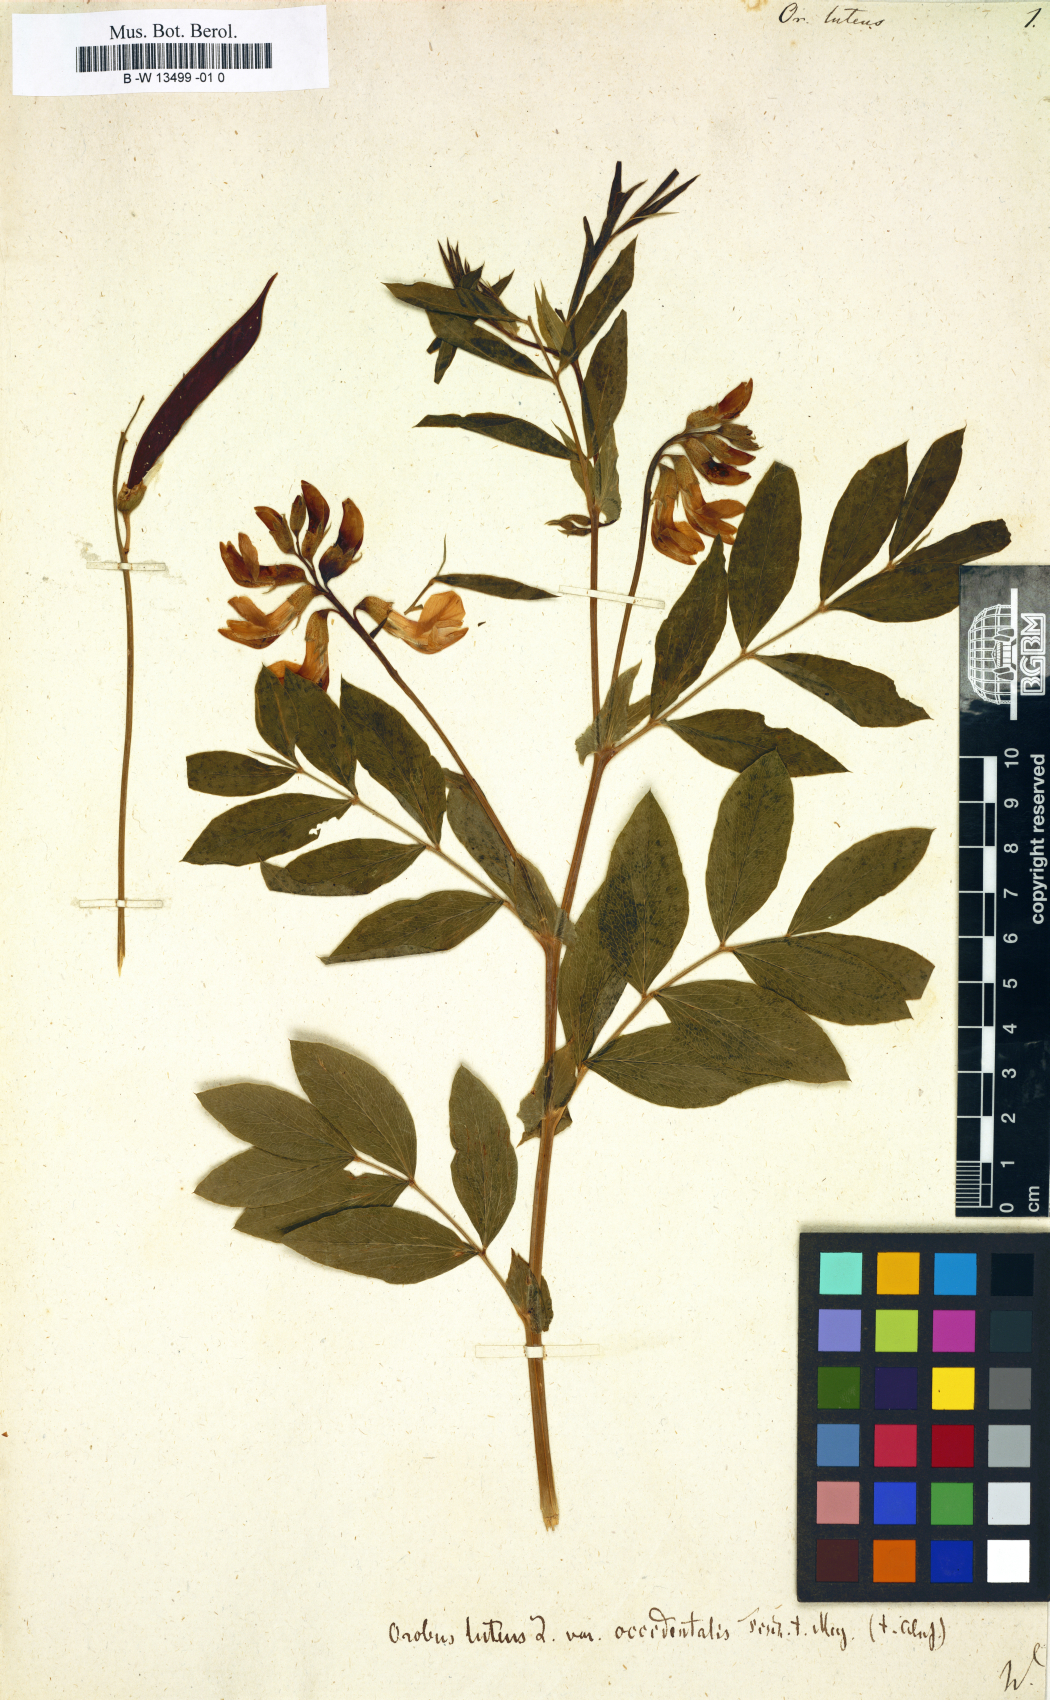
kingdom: Plantae
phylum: Tracheophyta
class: Magnoliopsida
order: Fabales
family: Fabaceae
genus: Lathyrus
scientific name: Lathyrus linifolius
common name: Bitter-vetch
